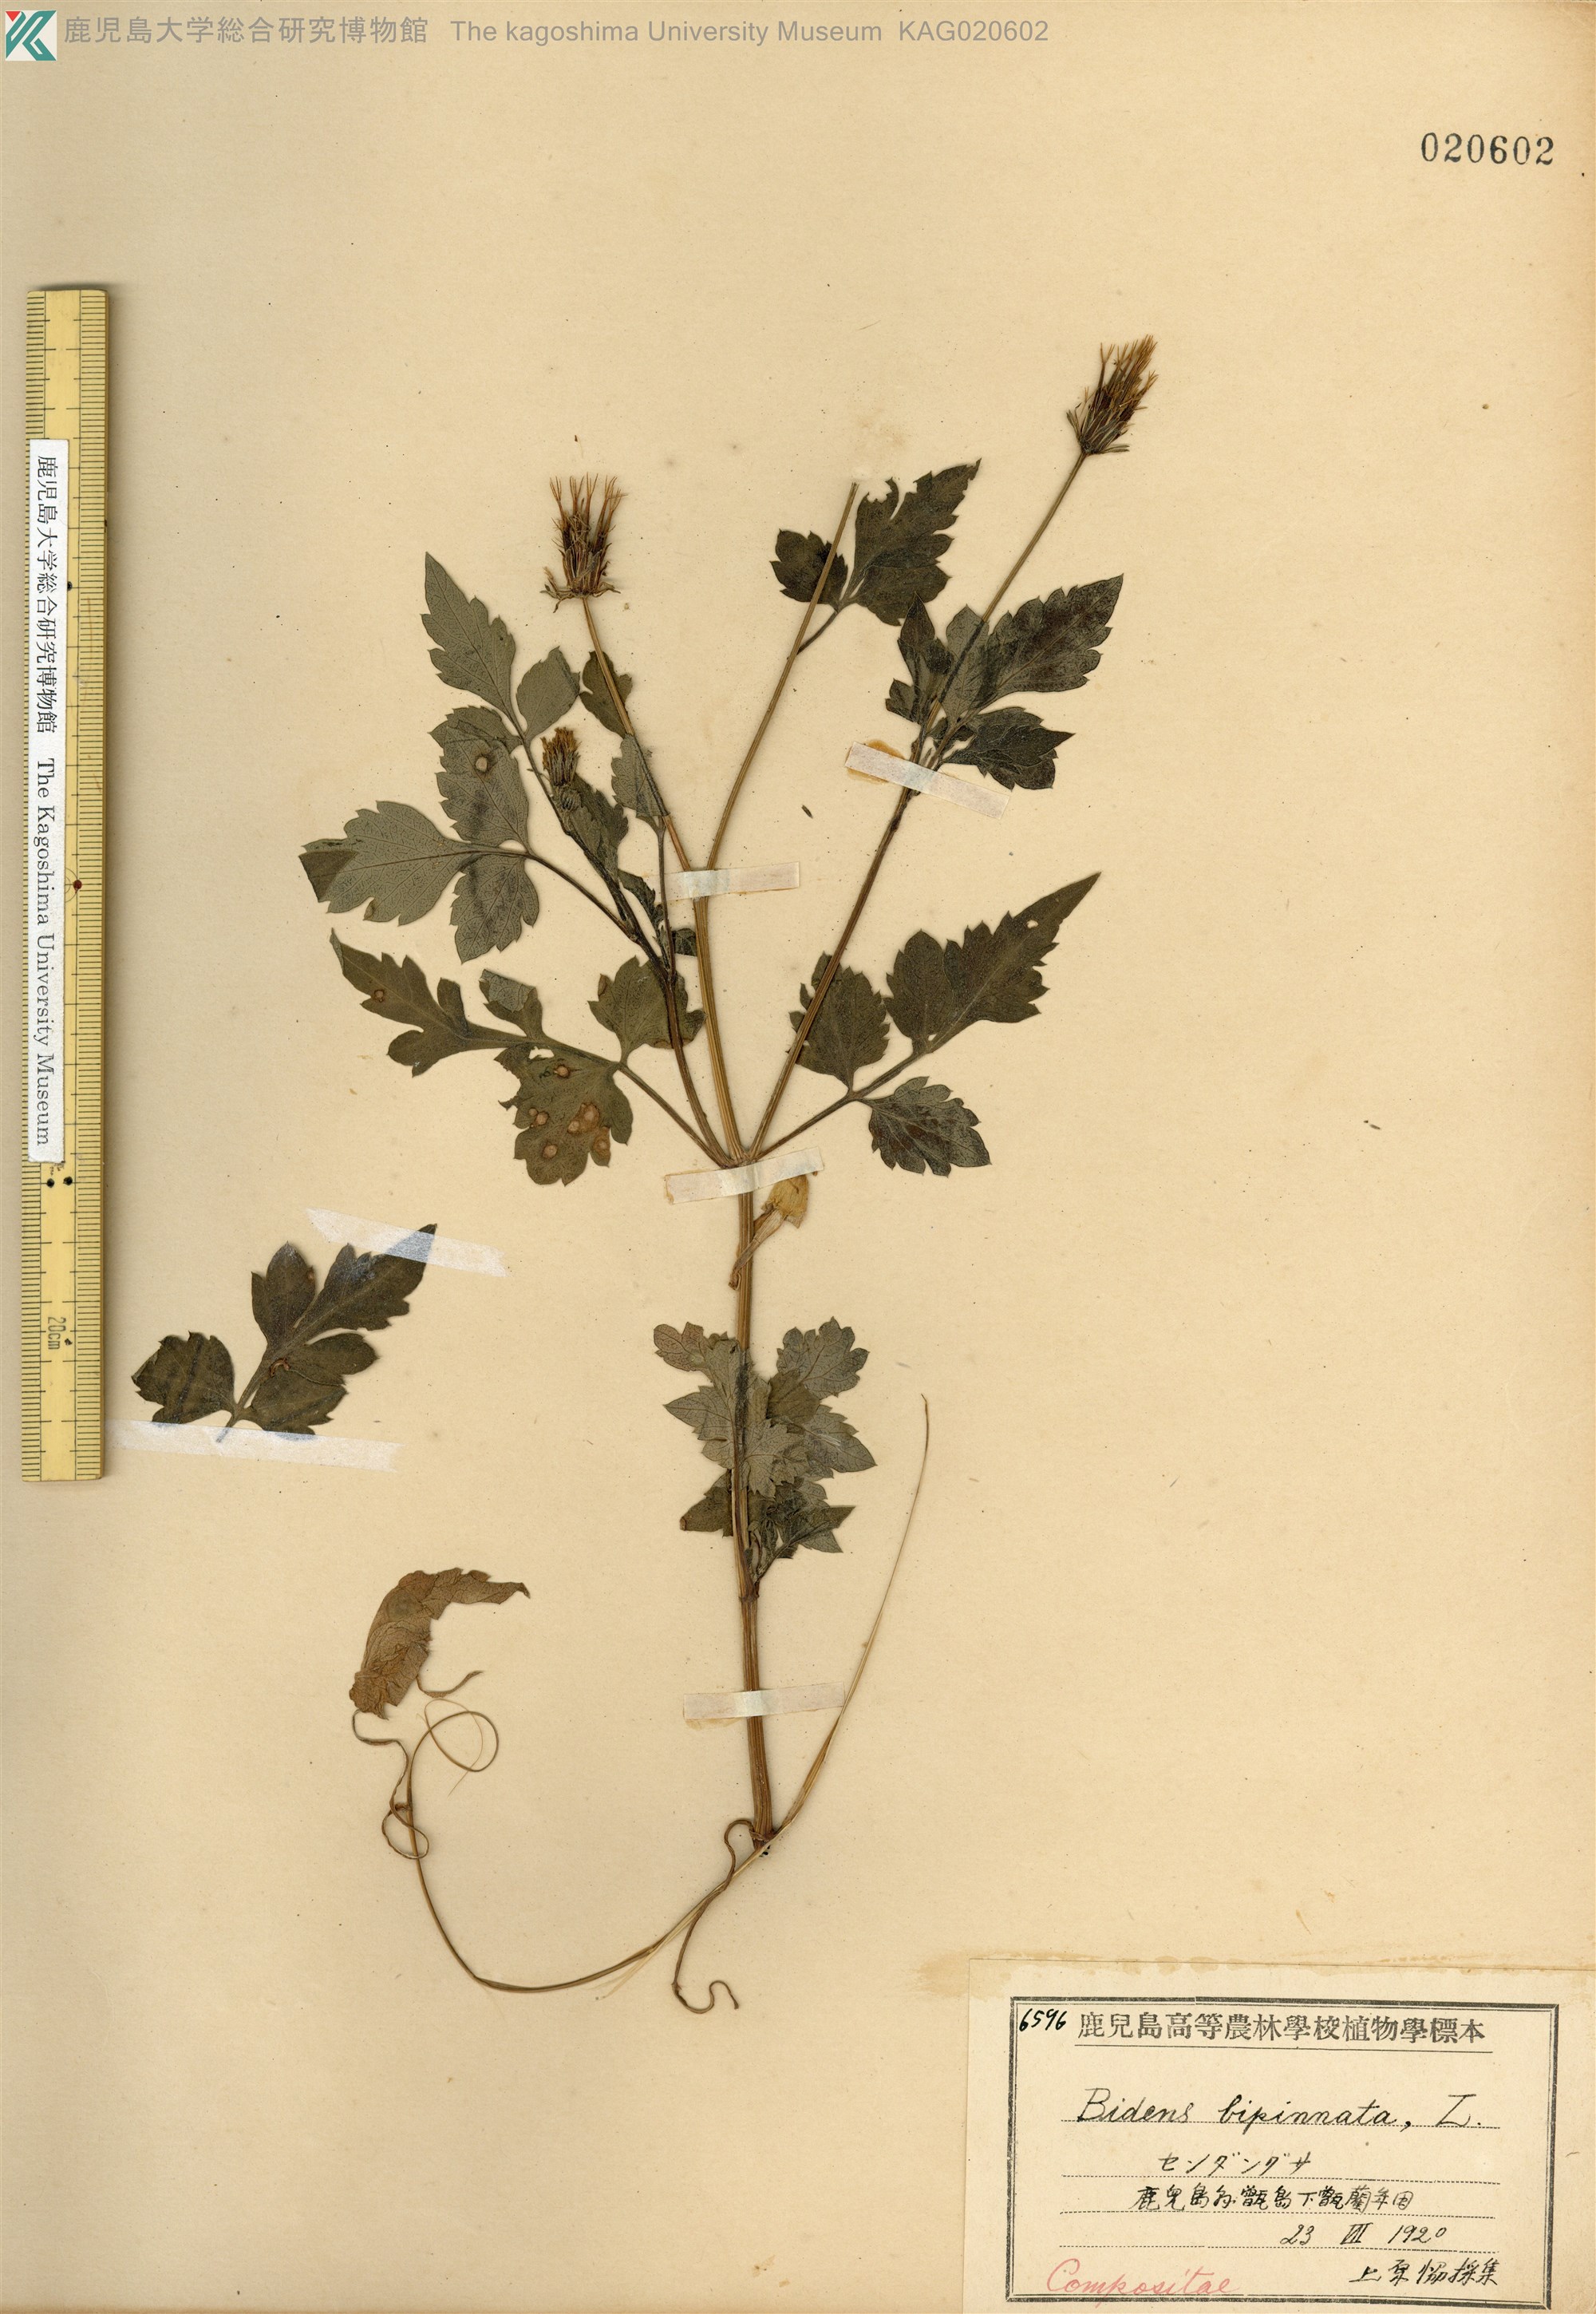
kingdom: Plantae
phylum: Tracheophyta
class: Magnoliopsida
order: Asterales
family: Asteraceae
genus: Bidens
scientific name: Bidens biternata
